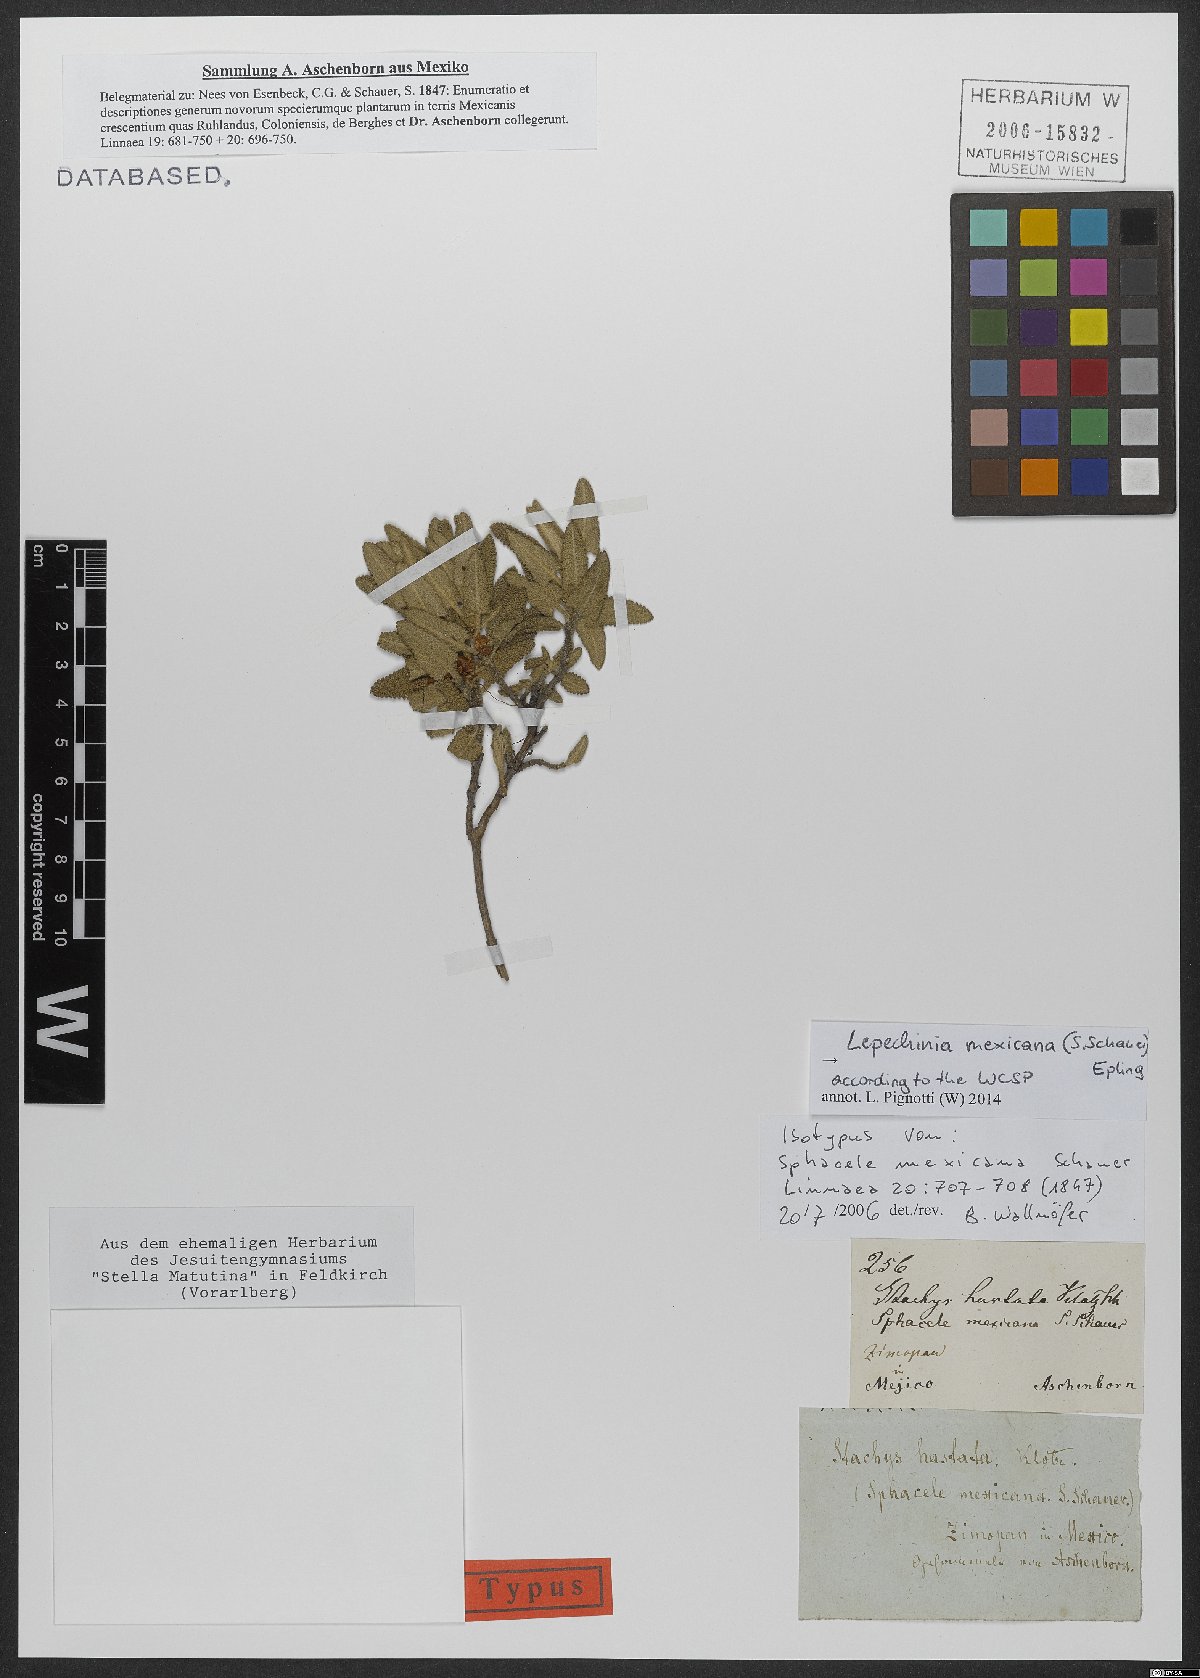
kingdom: Plantae
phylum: Tracheophyta
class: Magnoliopsida
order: Lamiales
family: Lamiaceae
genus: Lepechinia
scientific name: Lepechinia mexicana
